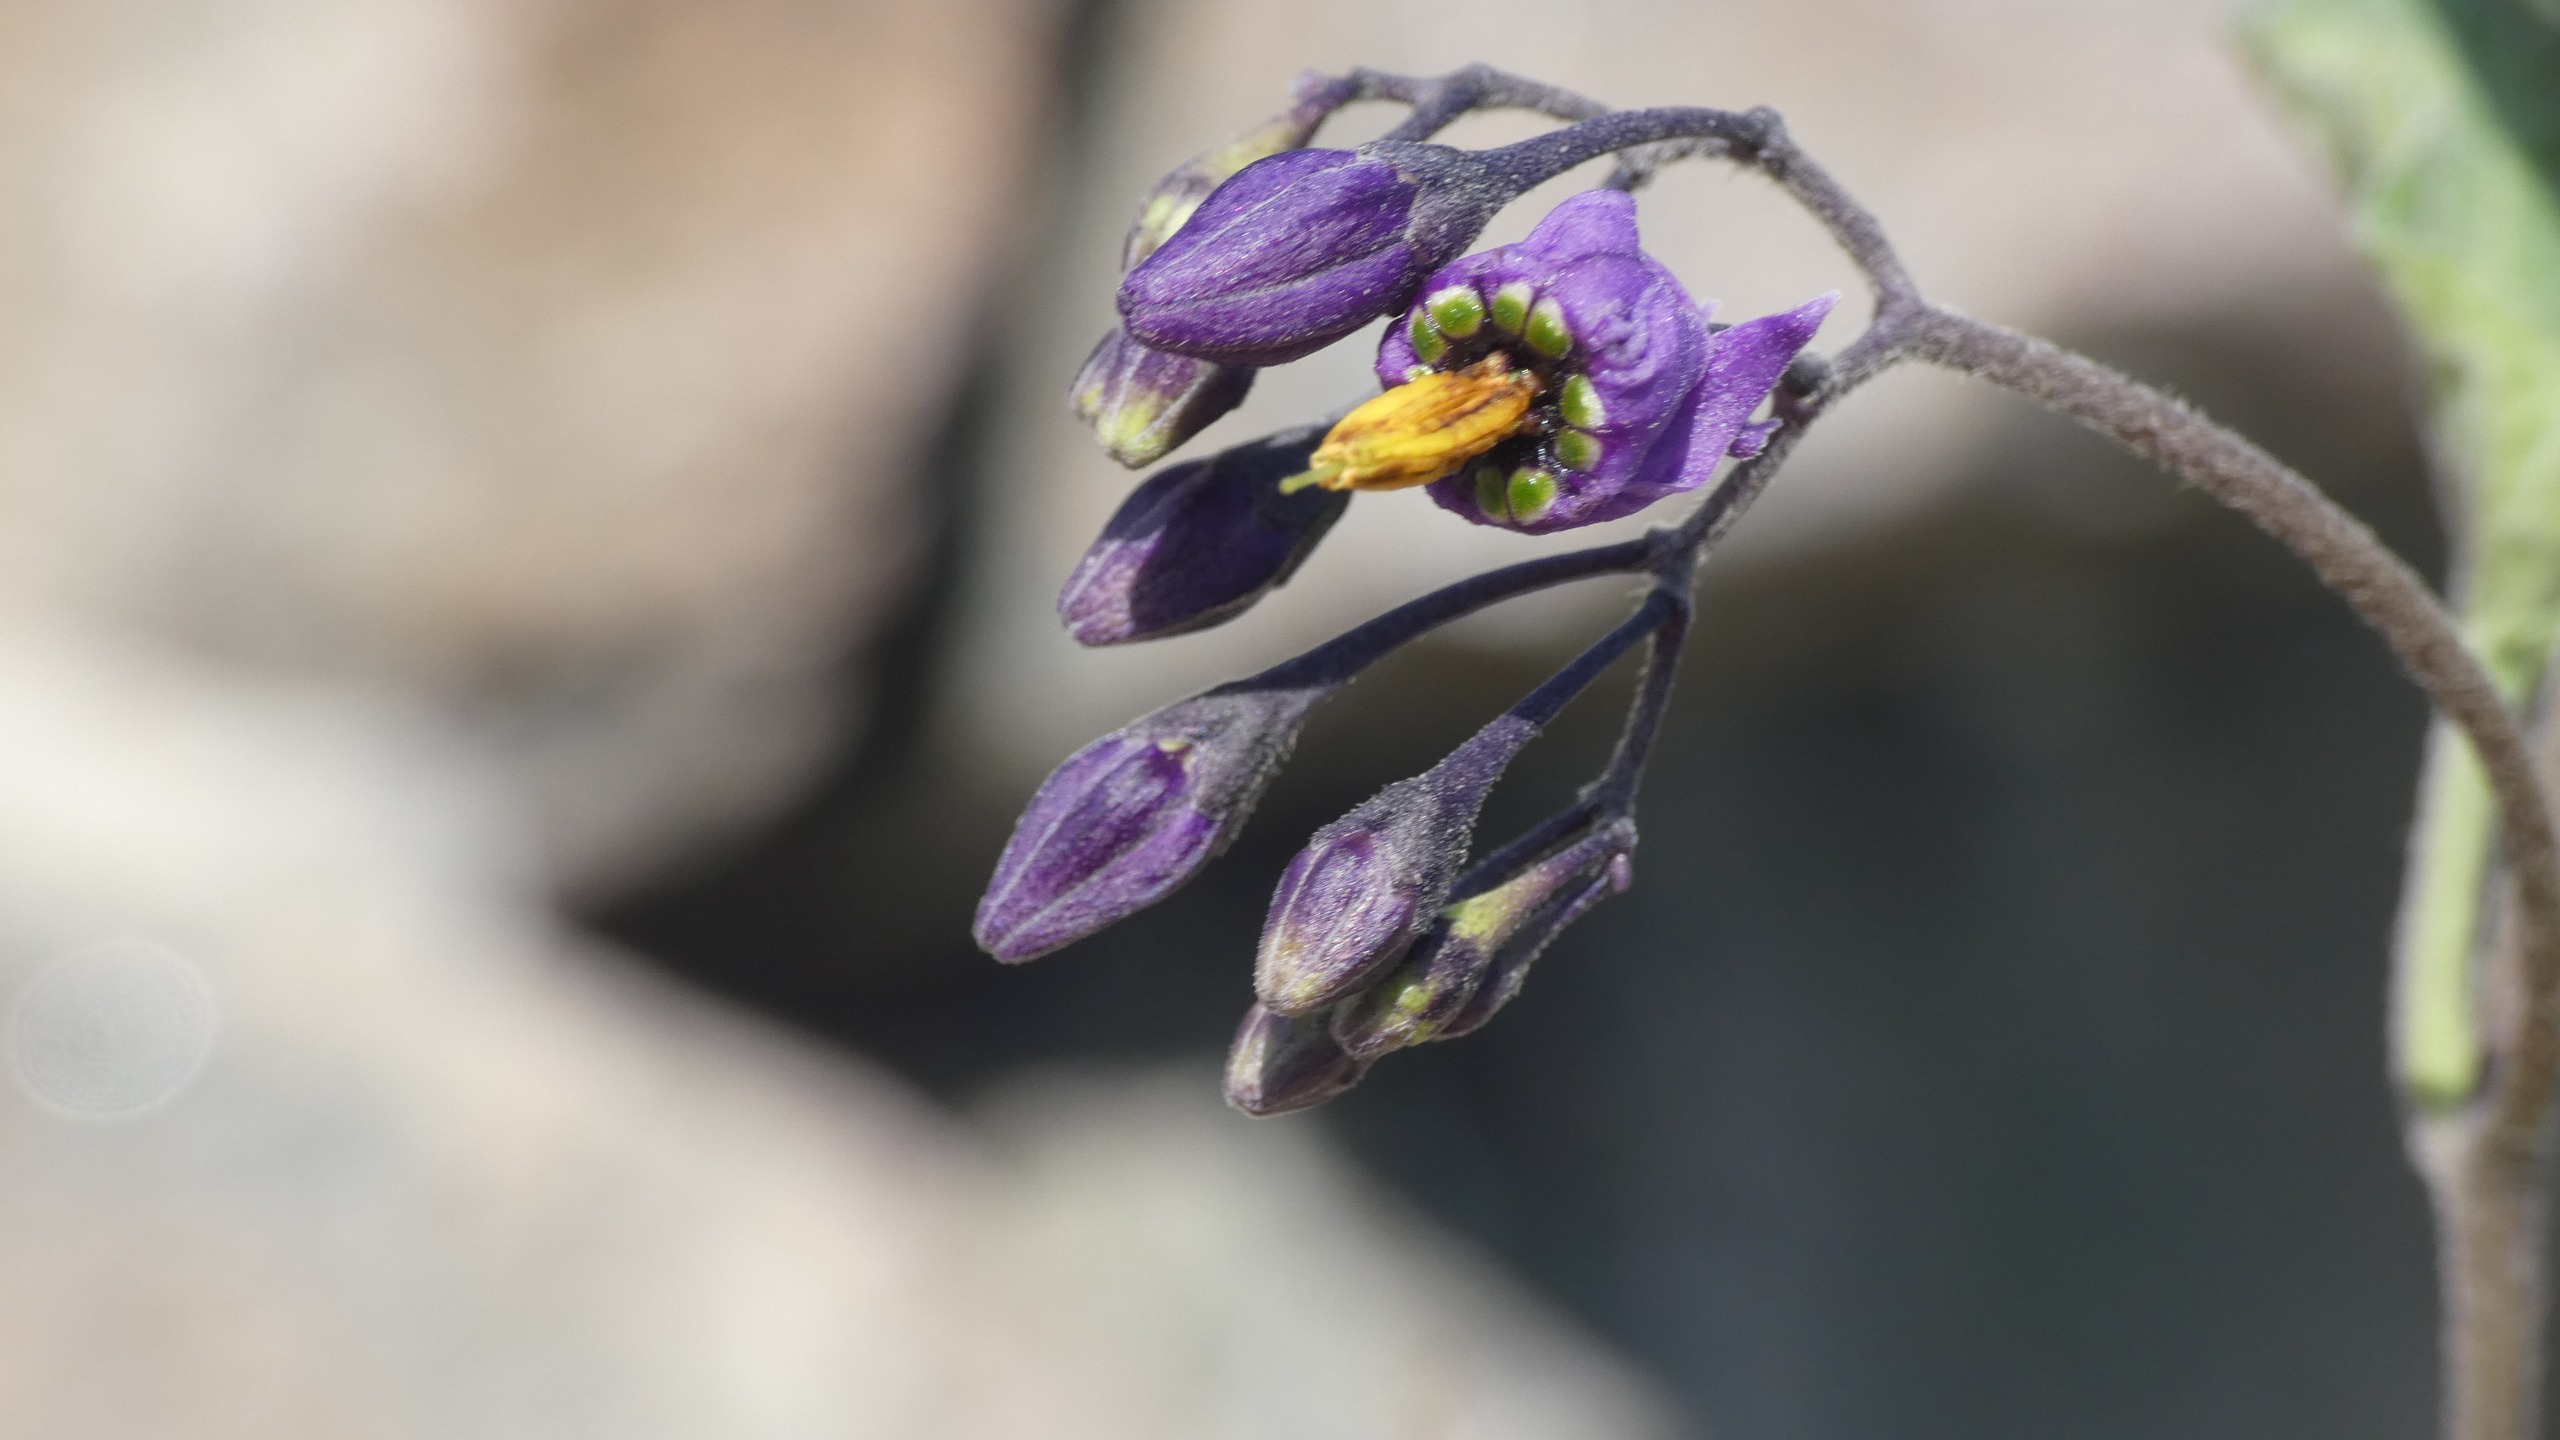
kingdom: Plantae
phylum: Tracheophyta
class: Magnoliopsida
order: Solanales
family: Solanaceae
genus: Solanum
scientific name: Solanum dulcamara
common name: Bittersød natskygge
